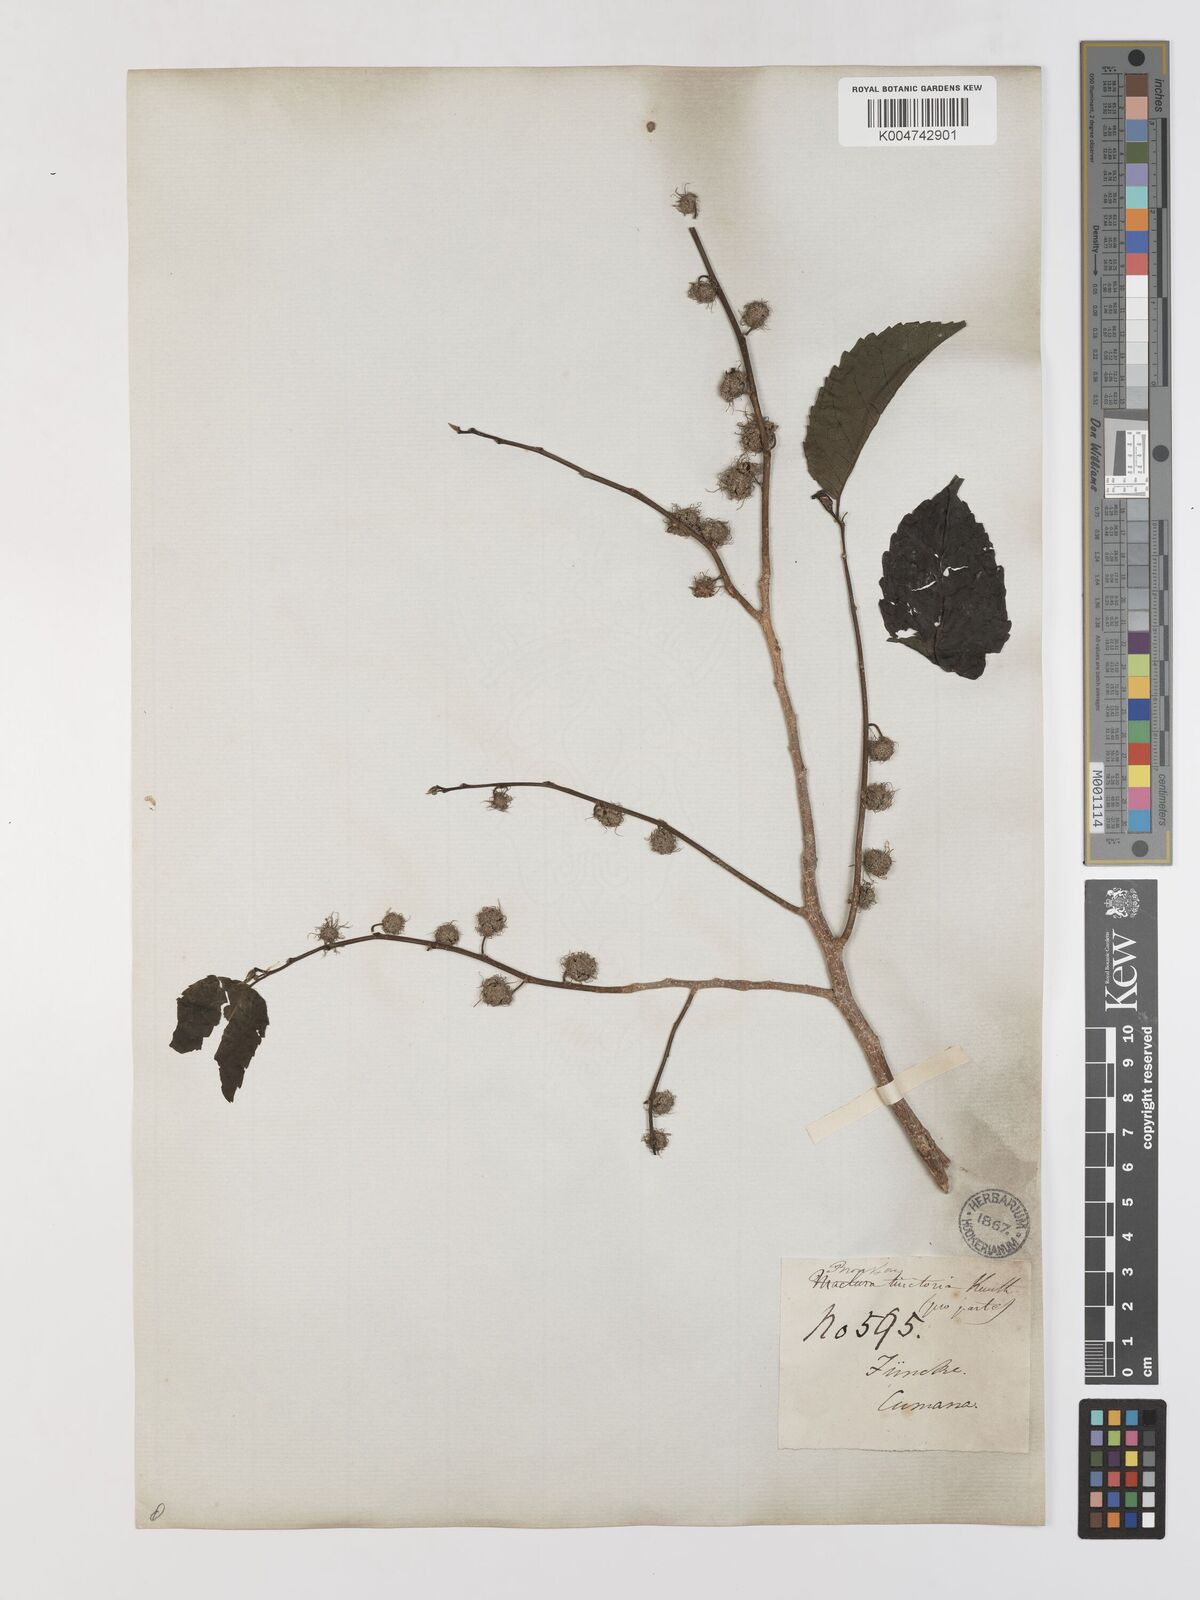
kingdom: Plantae
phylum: Tracheophyta
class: Magnoliopsida
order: Rosales
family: Moraceae
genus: Maclura
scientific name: Maclura tinctoria
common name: Old fustic
